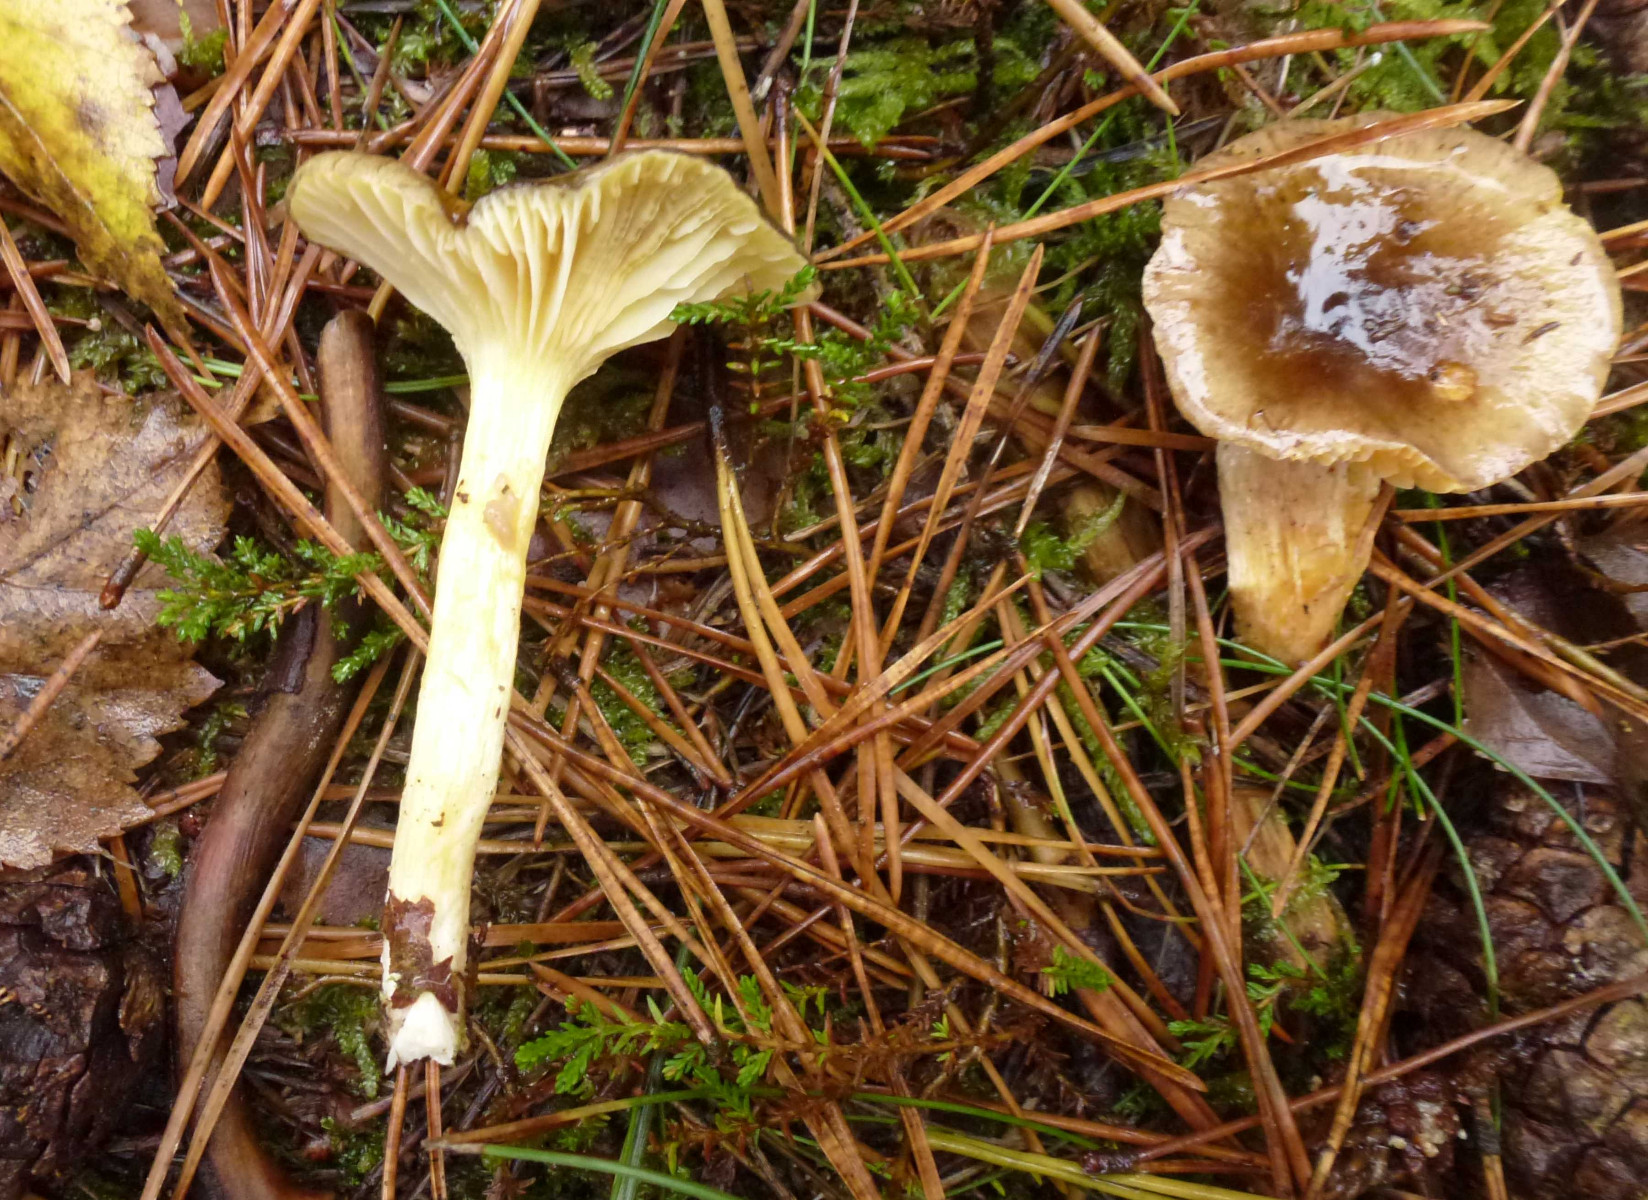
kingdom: Fungi
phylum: Basidiomycota
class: Agaricomycetes
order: Agaricales
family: Hygrophoraceae
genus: Hygrophorus
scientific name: Hygrophorus hypothejus
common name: frost-sneglehat
